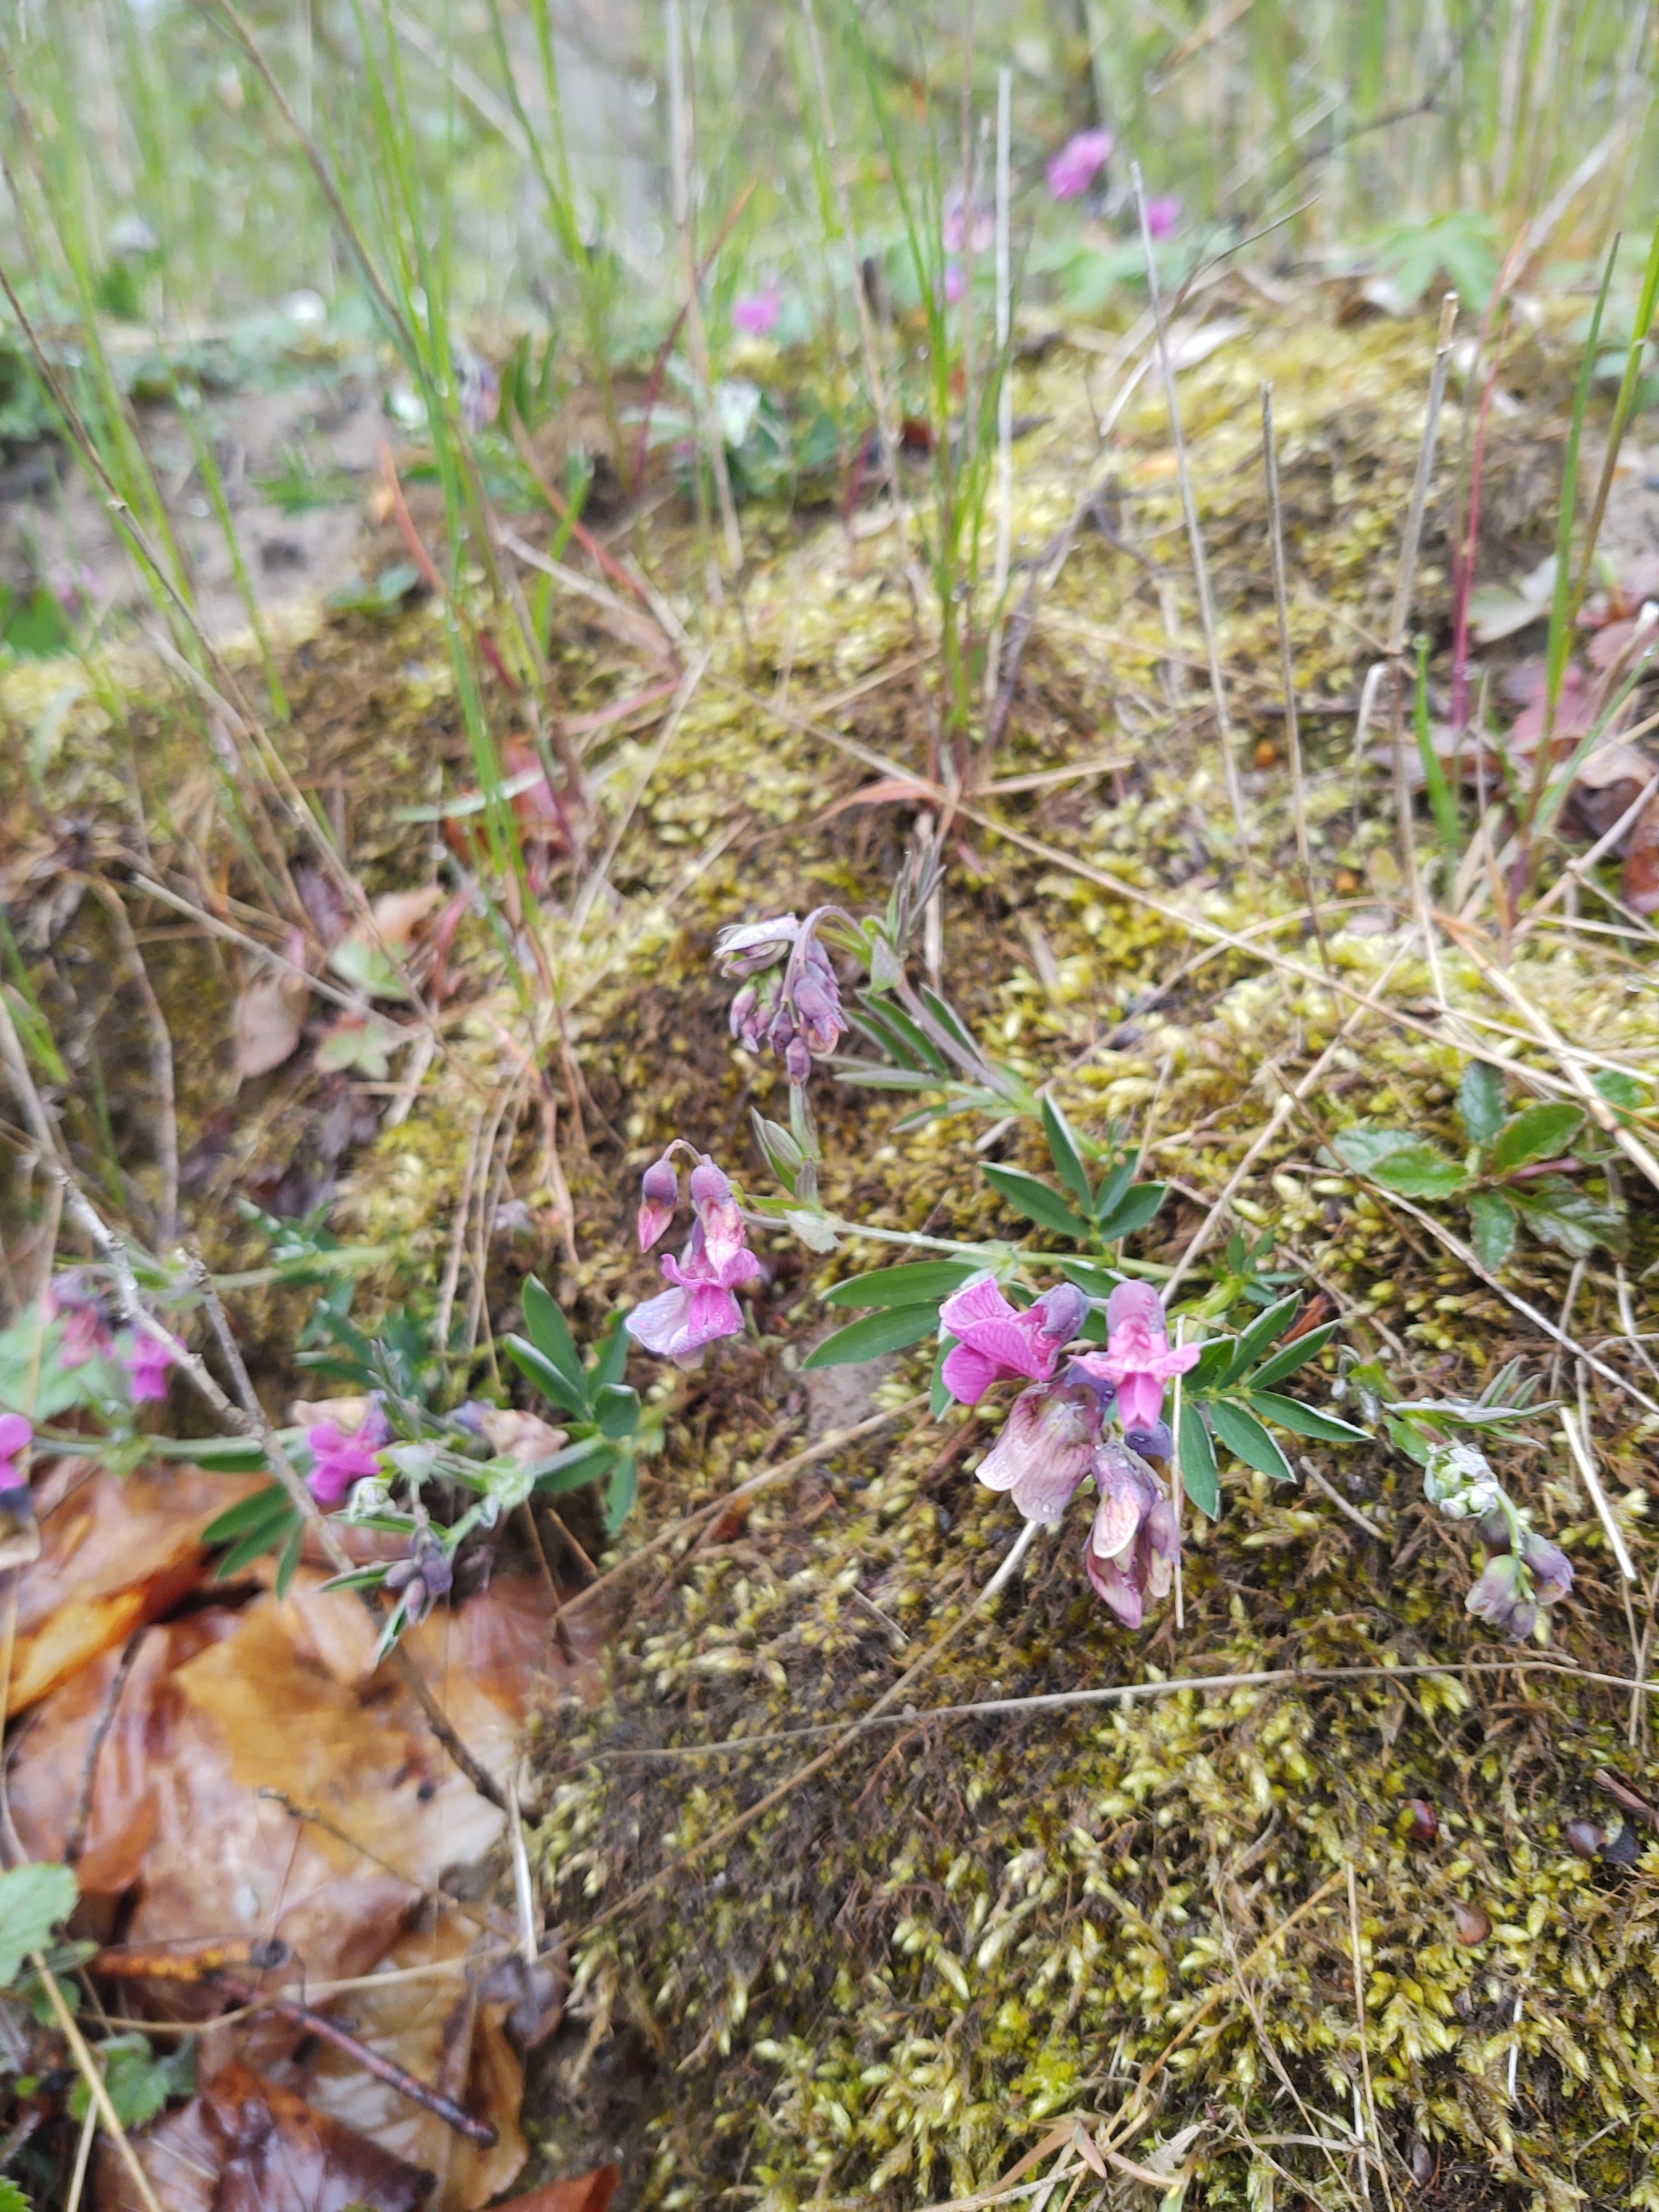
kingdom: Plantae
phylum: Tracheophyta
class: Magnoliopsida
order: Fabales
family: Fabaceae
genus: Lathyrus
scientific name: Lathyrus linifolius
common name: Krat-fladbælg
